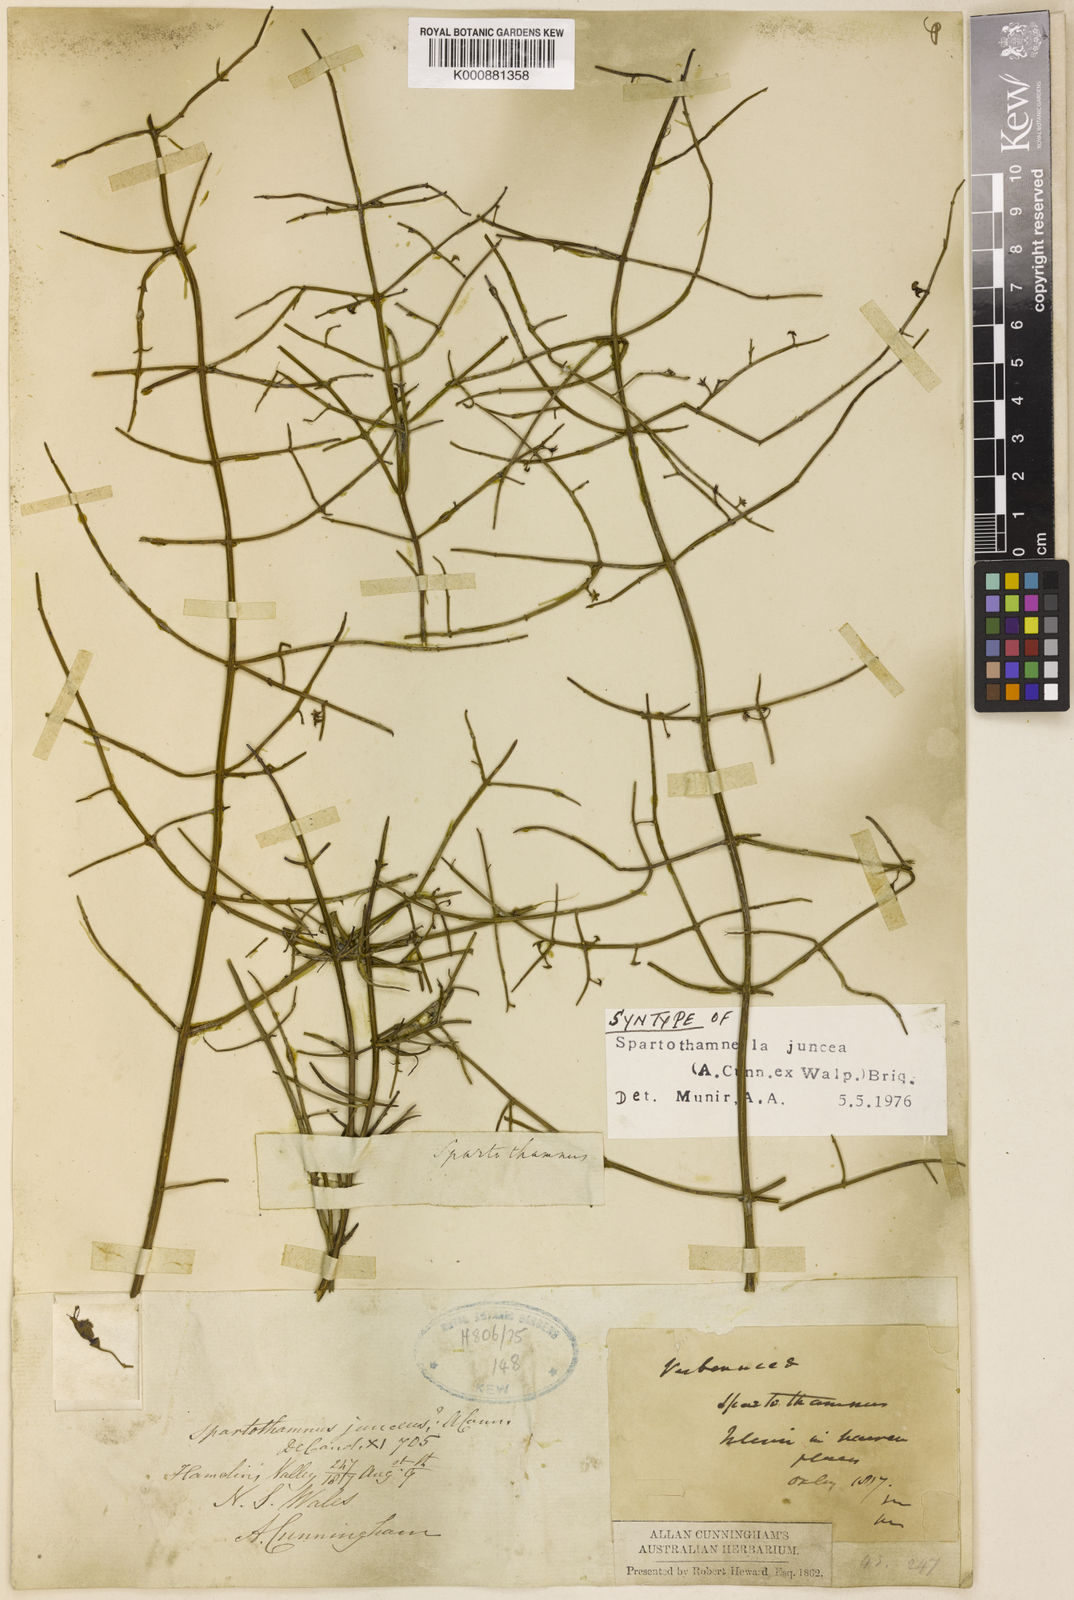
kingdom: Plantae
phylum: Tracheophyta
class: Magnoliopsida
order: Lamiales
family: Lamiaceae
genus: Teucrium
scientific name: Teucrium junceum
